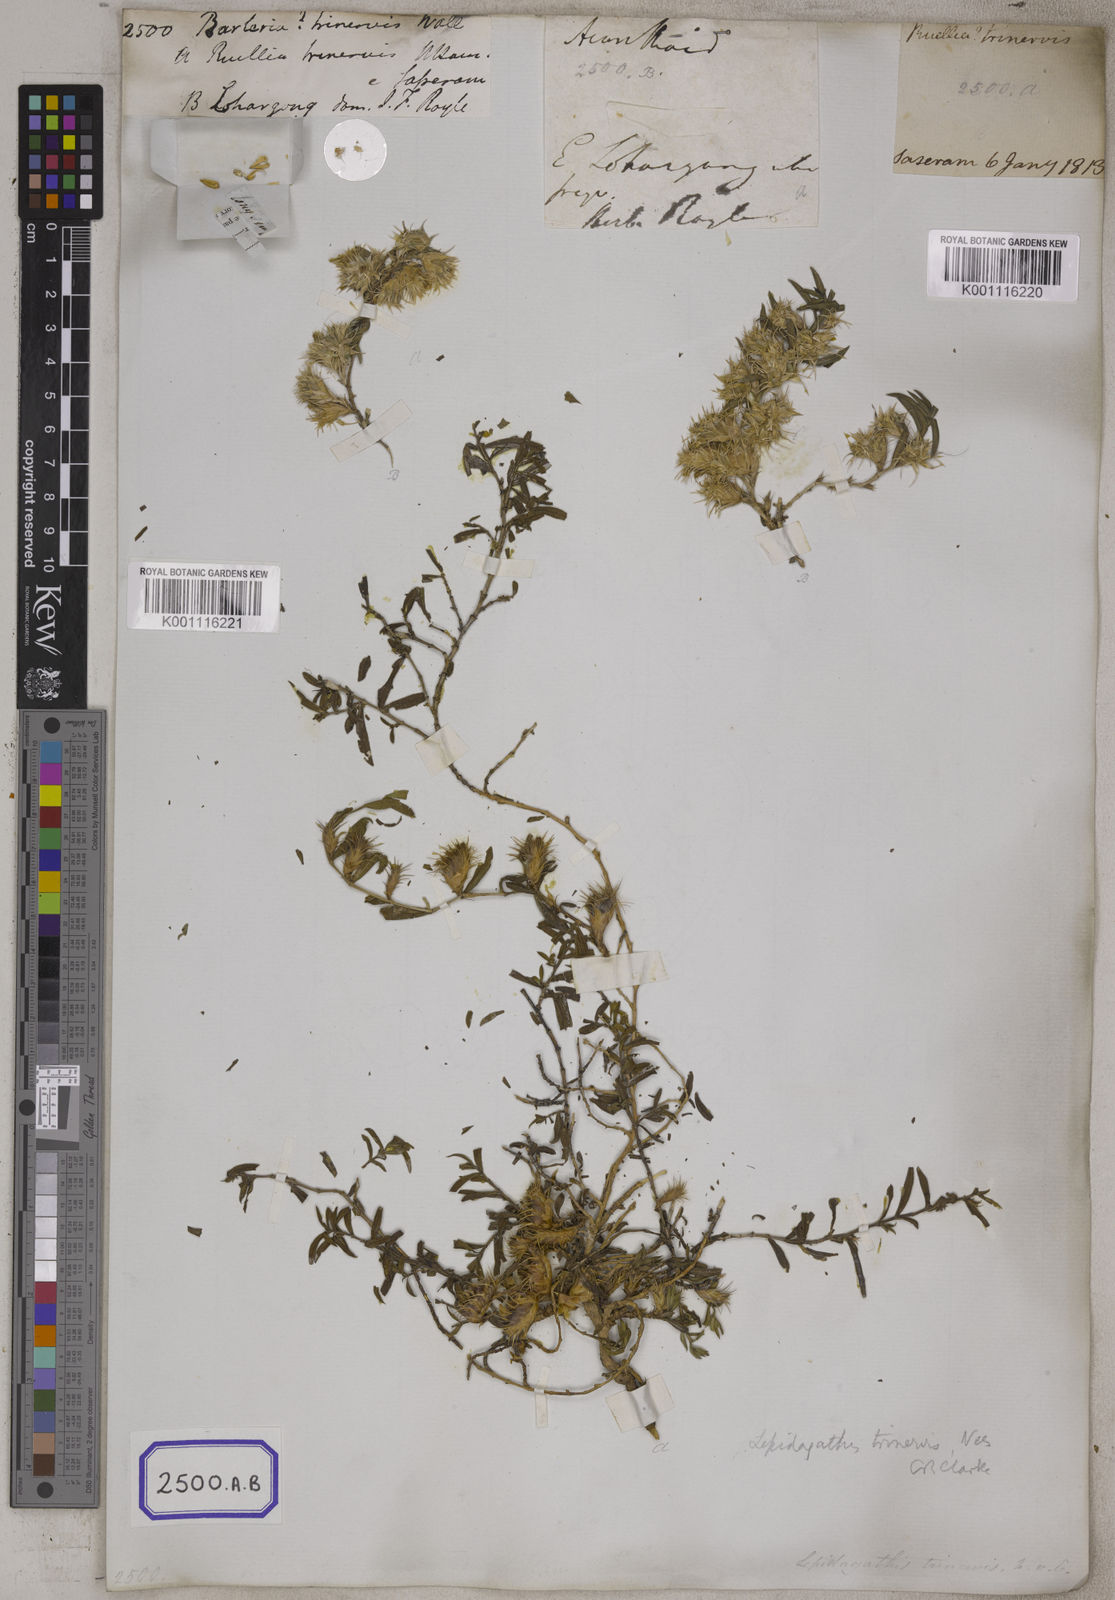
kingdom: Plantae
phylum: Tracheophyta
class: Magnoliopsida
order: Lamiales
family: Acanthaceae
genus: Barleria
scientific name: Barleria acanthoides
